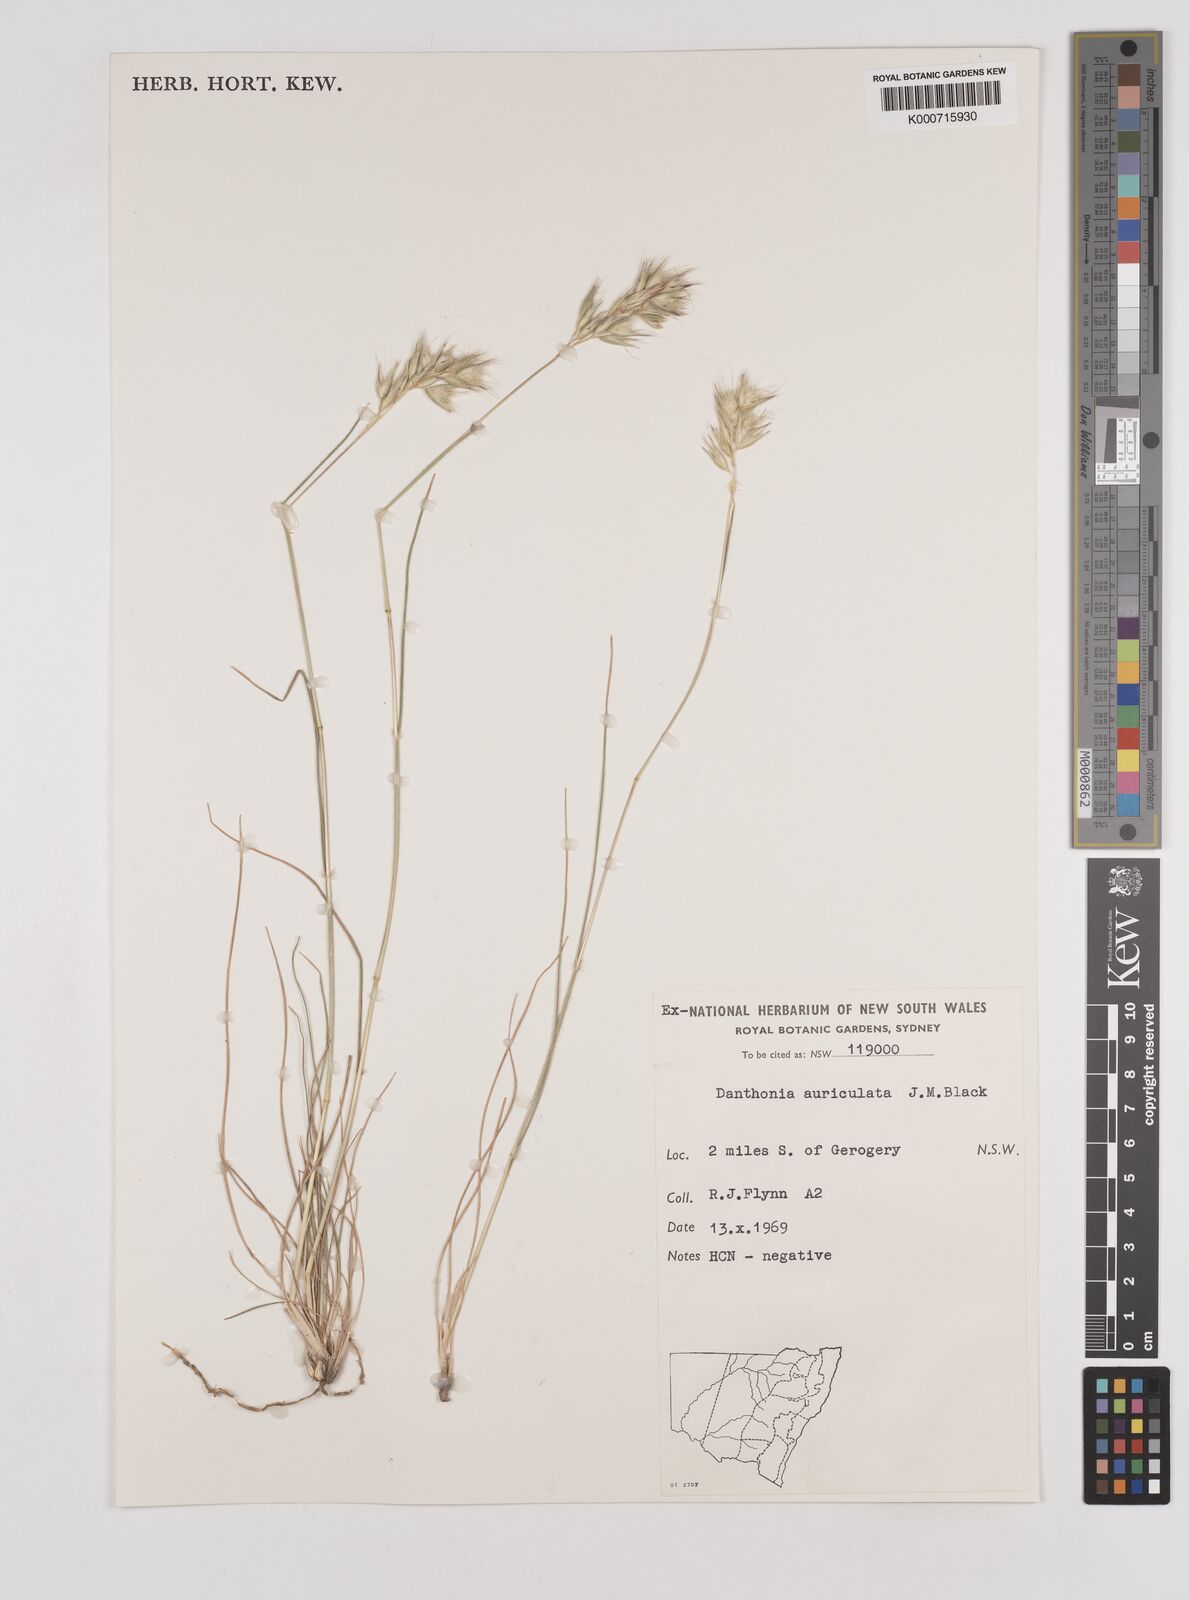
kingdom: Plantae
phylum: Tracheophyta
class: Liliopsida
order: Poales
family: Poaceae
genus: Rytidosperma
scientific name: Rytidosperma auriculatum
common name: Lobed wallaby grass
